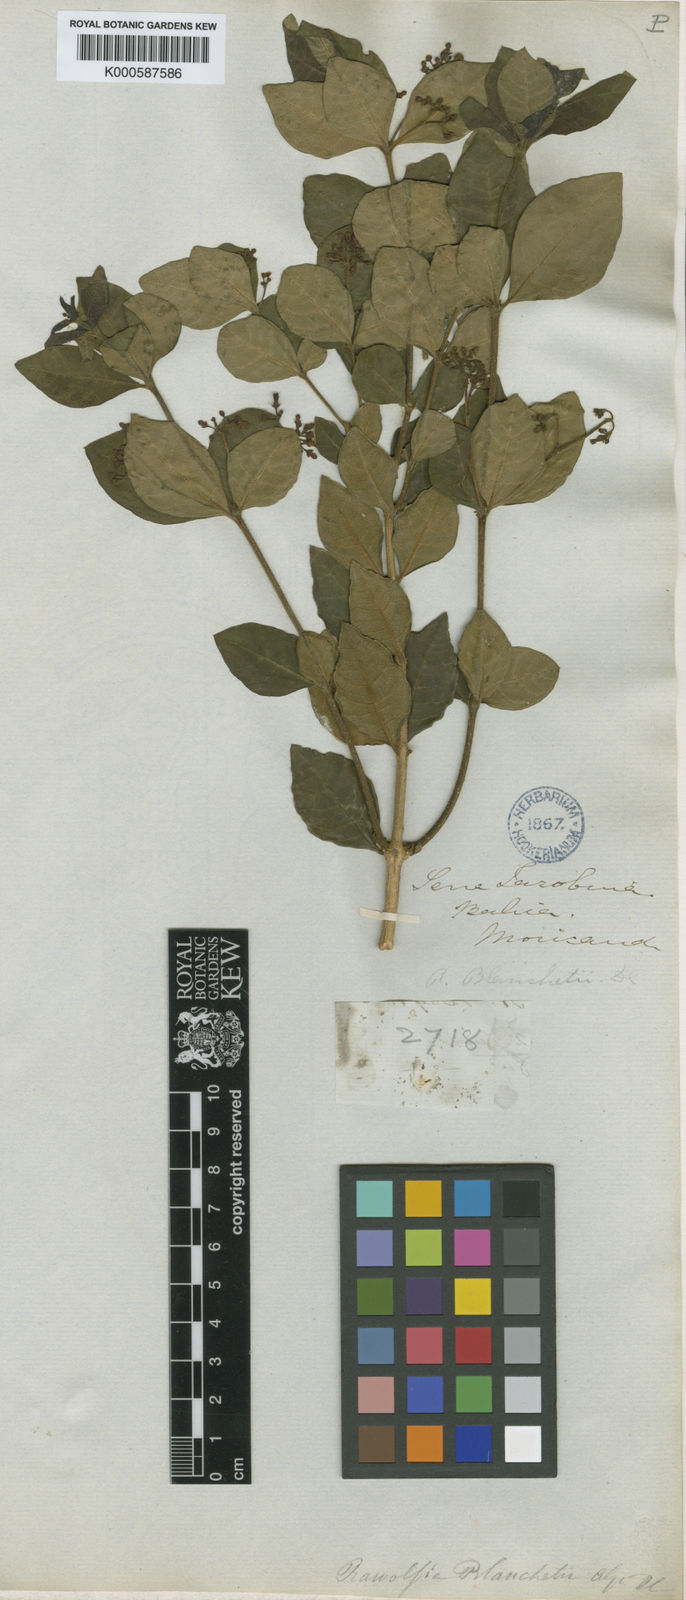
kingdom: Plantae
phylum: Tracheophyta
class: Magnoliopsida
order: Gentianales
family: Apocynaceae
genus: Rauvolfia
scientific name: Rauvolfia ligustrina
